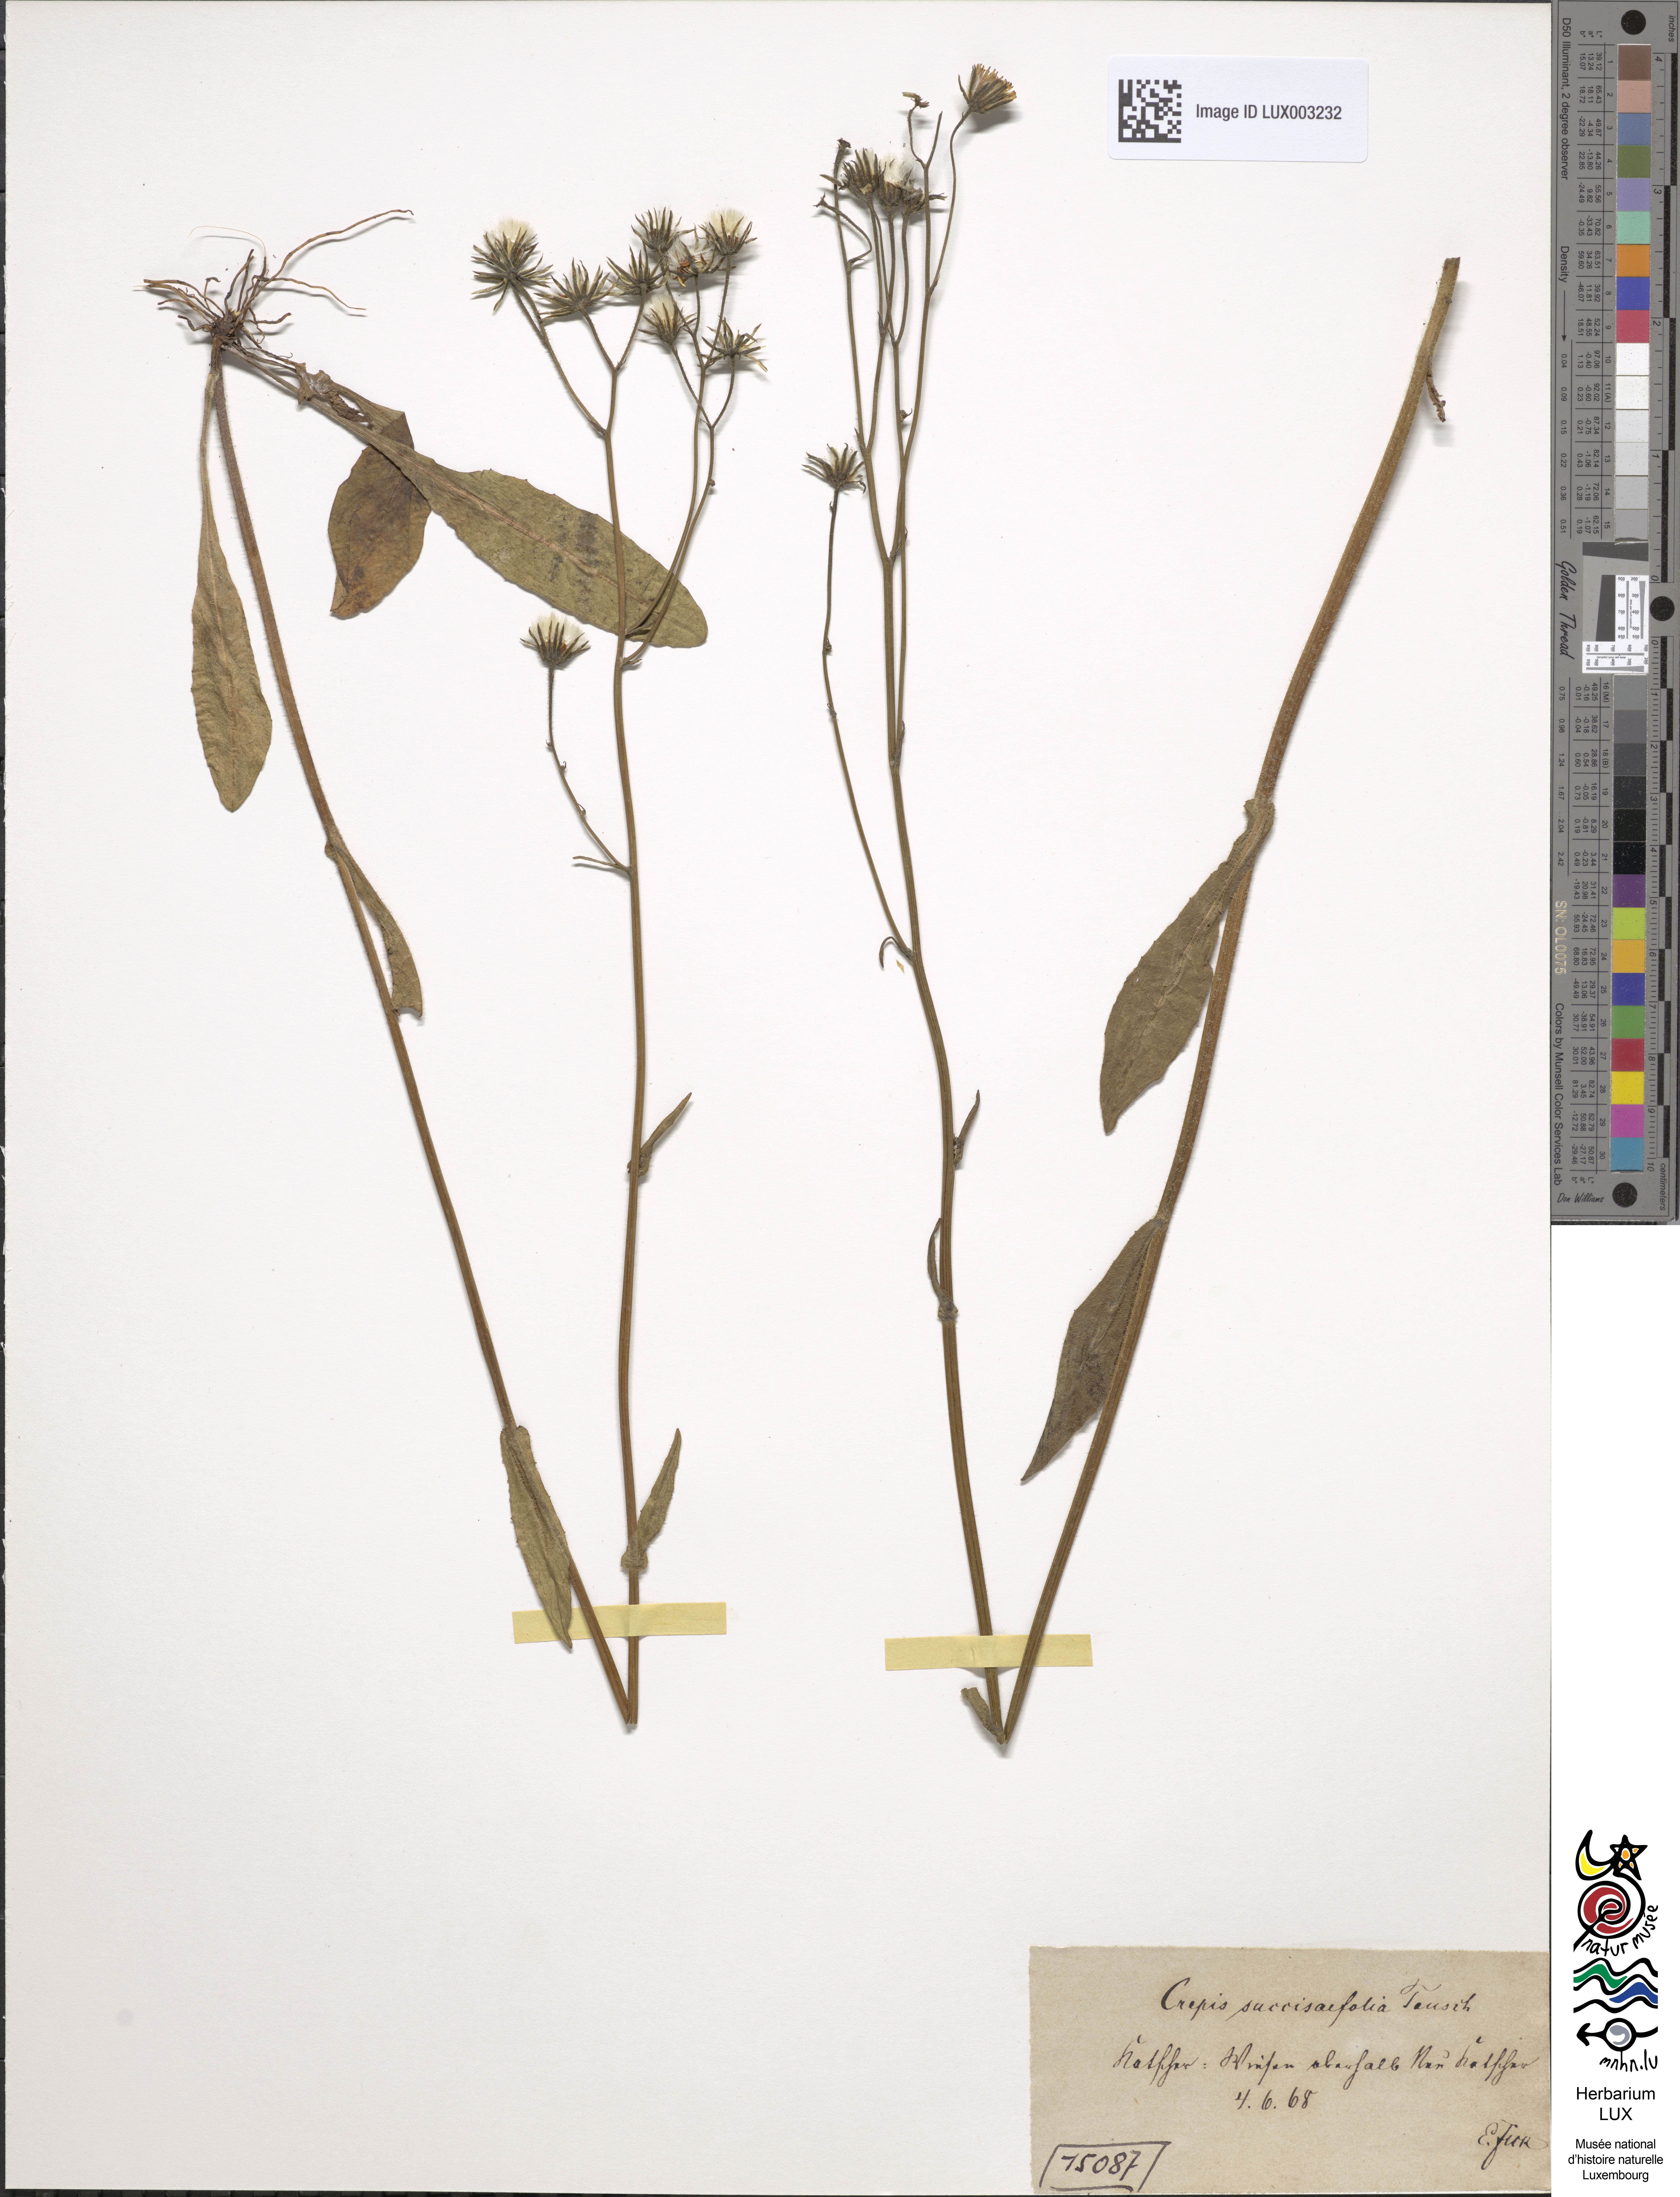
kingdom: Plantae
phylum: Tracheophyta
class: Magnoliopsida
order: Asterales
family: Asteraceae
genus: Crepis
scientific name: Crepis mollis
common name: Northern hawk's-beard
